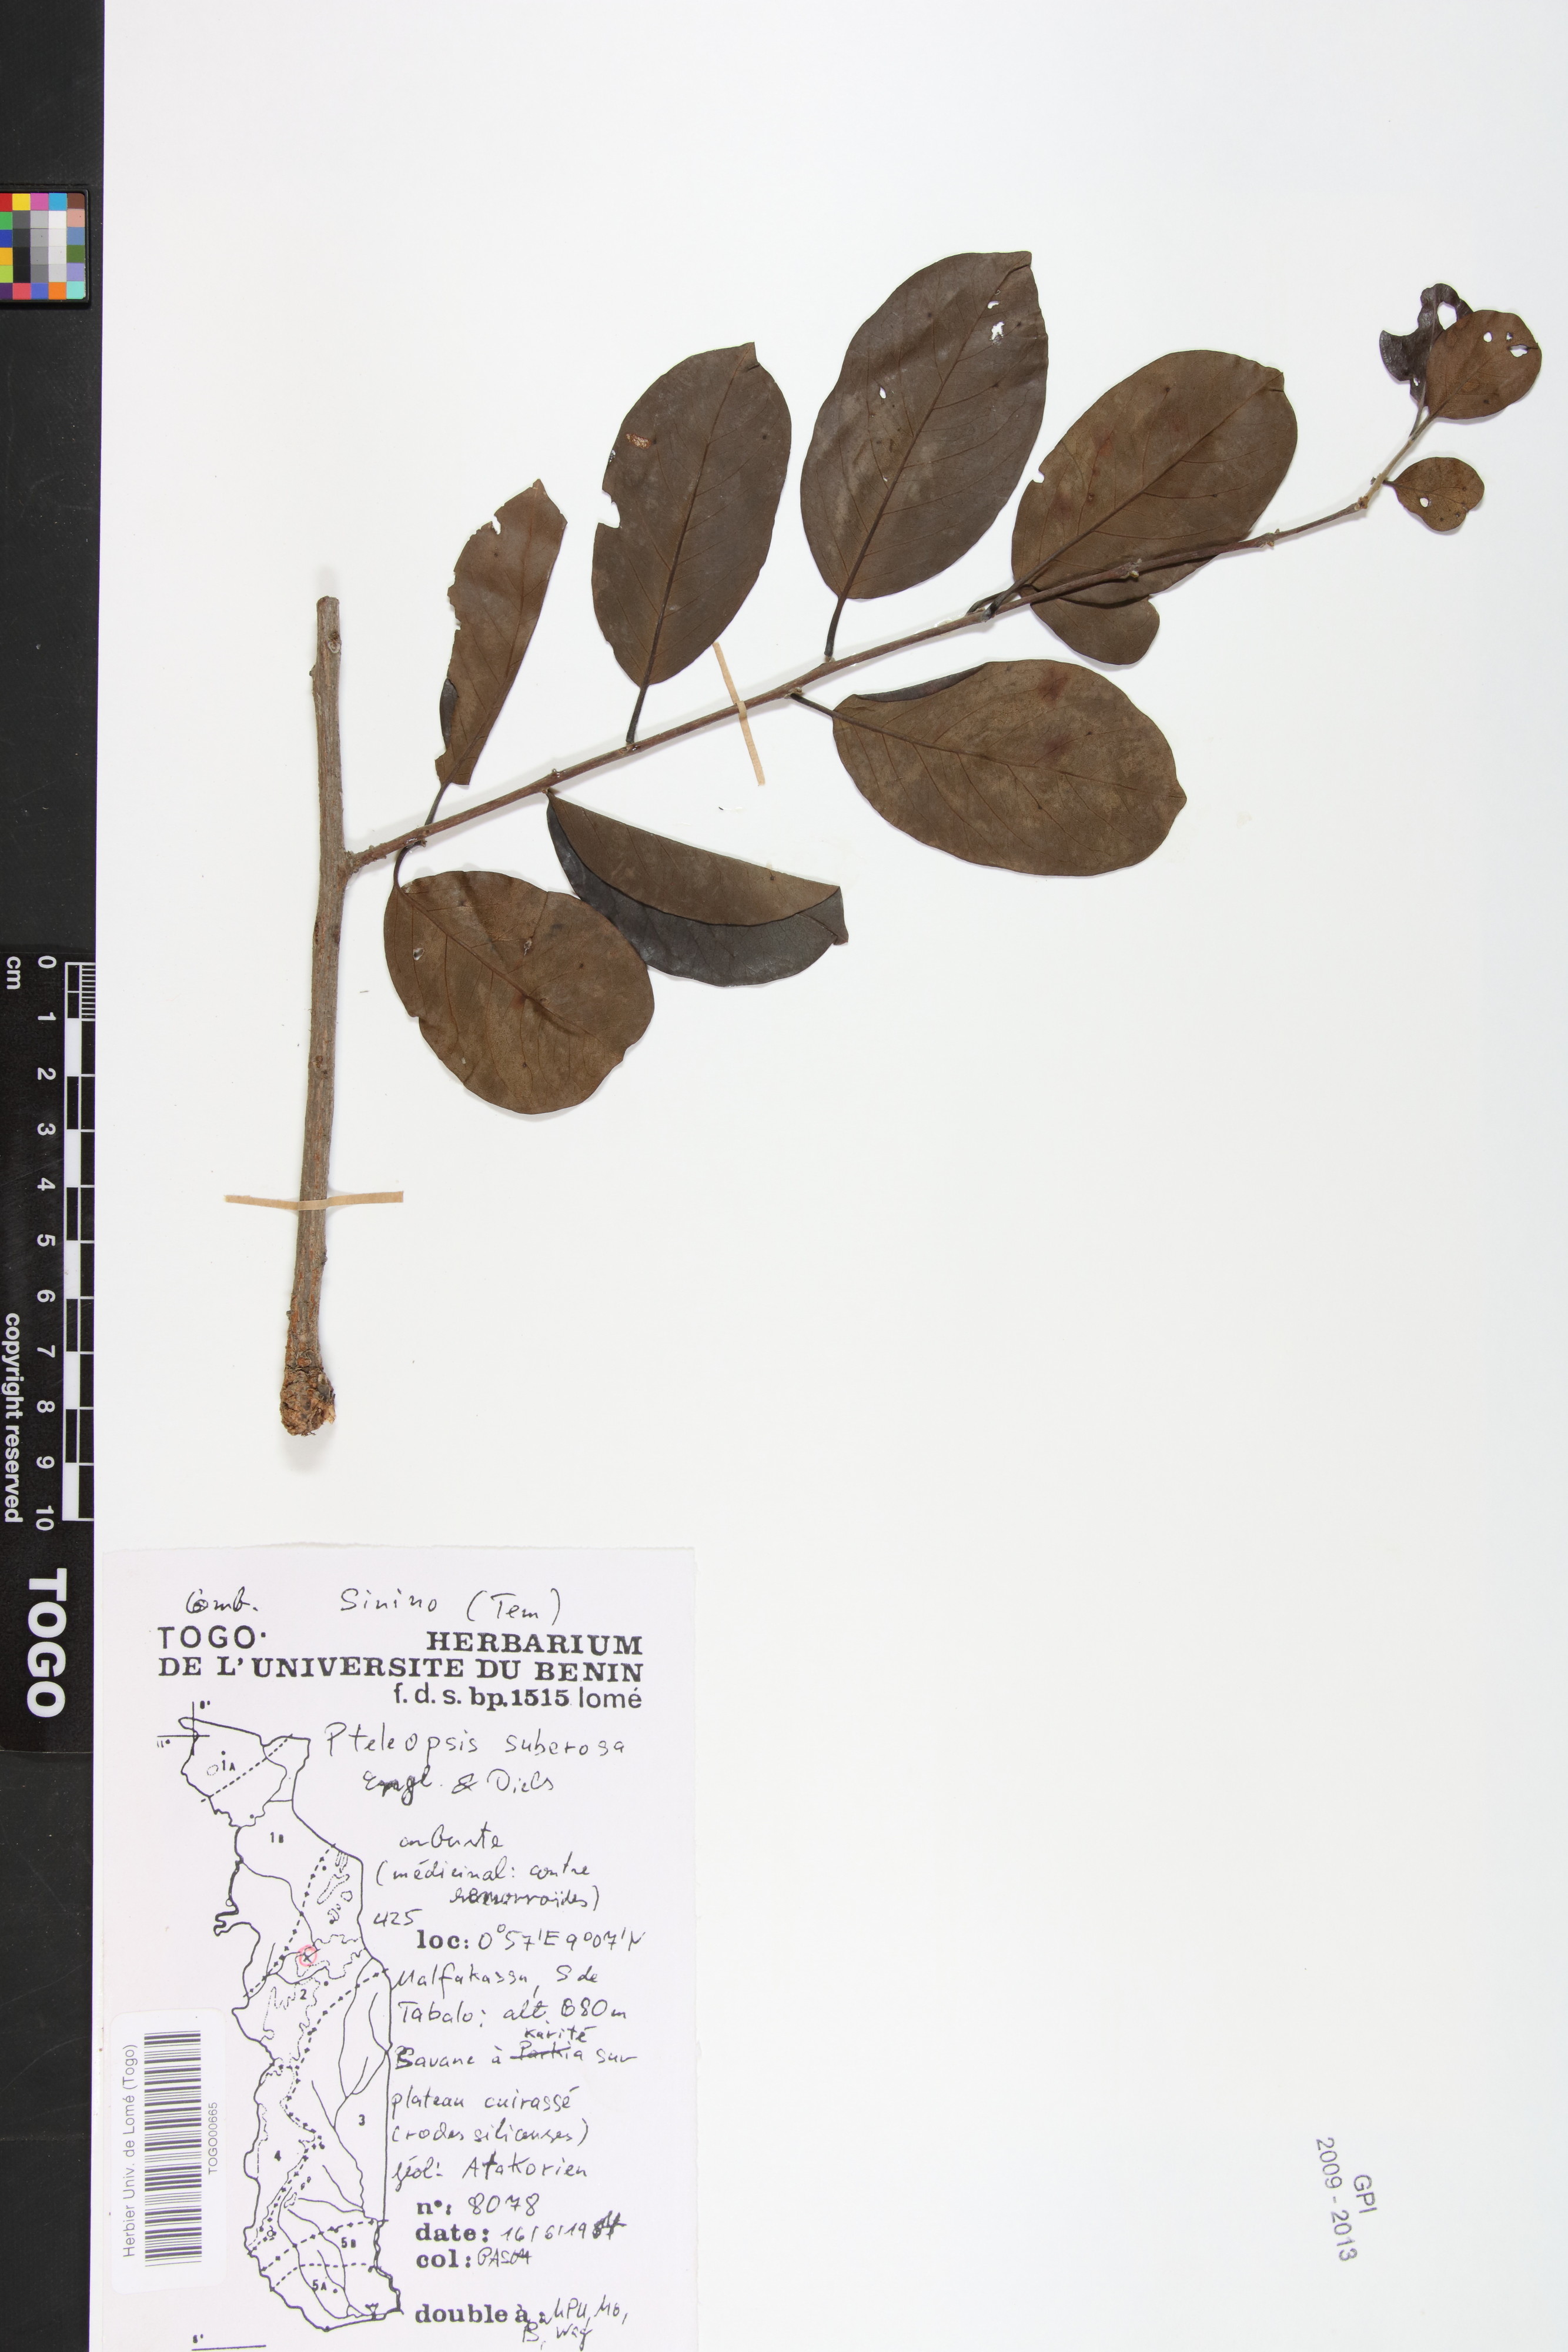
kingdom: Plantae
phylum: Tracheophyta
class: Magnoliopsida
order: Myrtales
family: Combretaceae
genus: Terminalia
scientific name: Terminalia engleri
